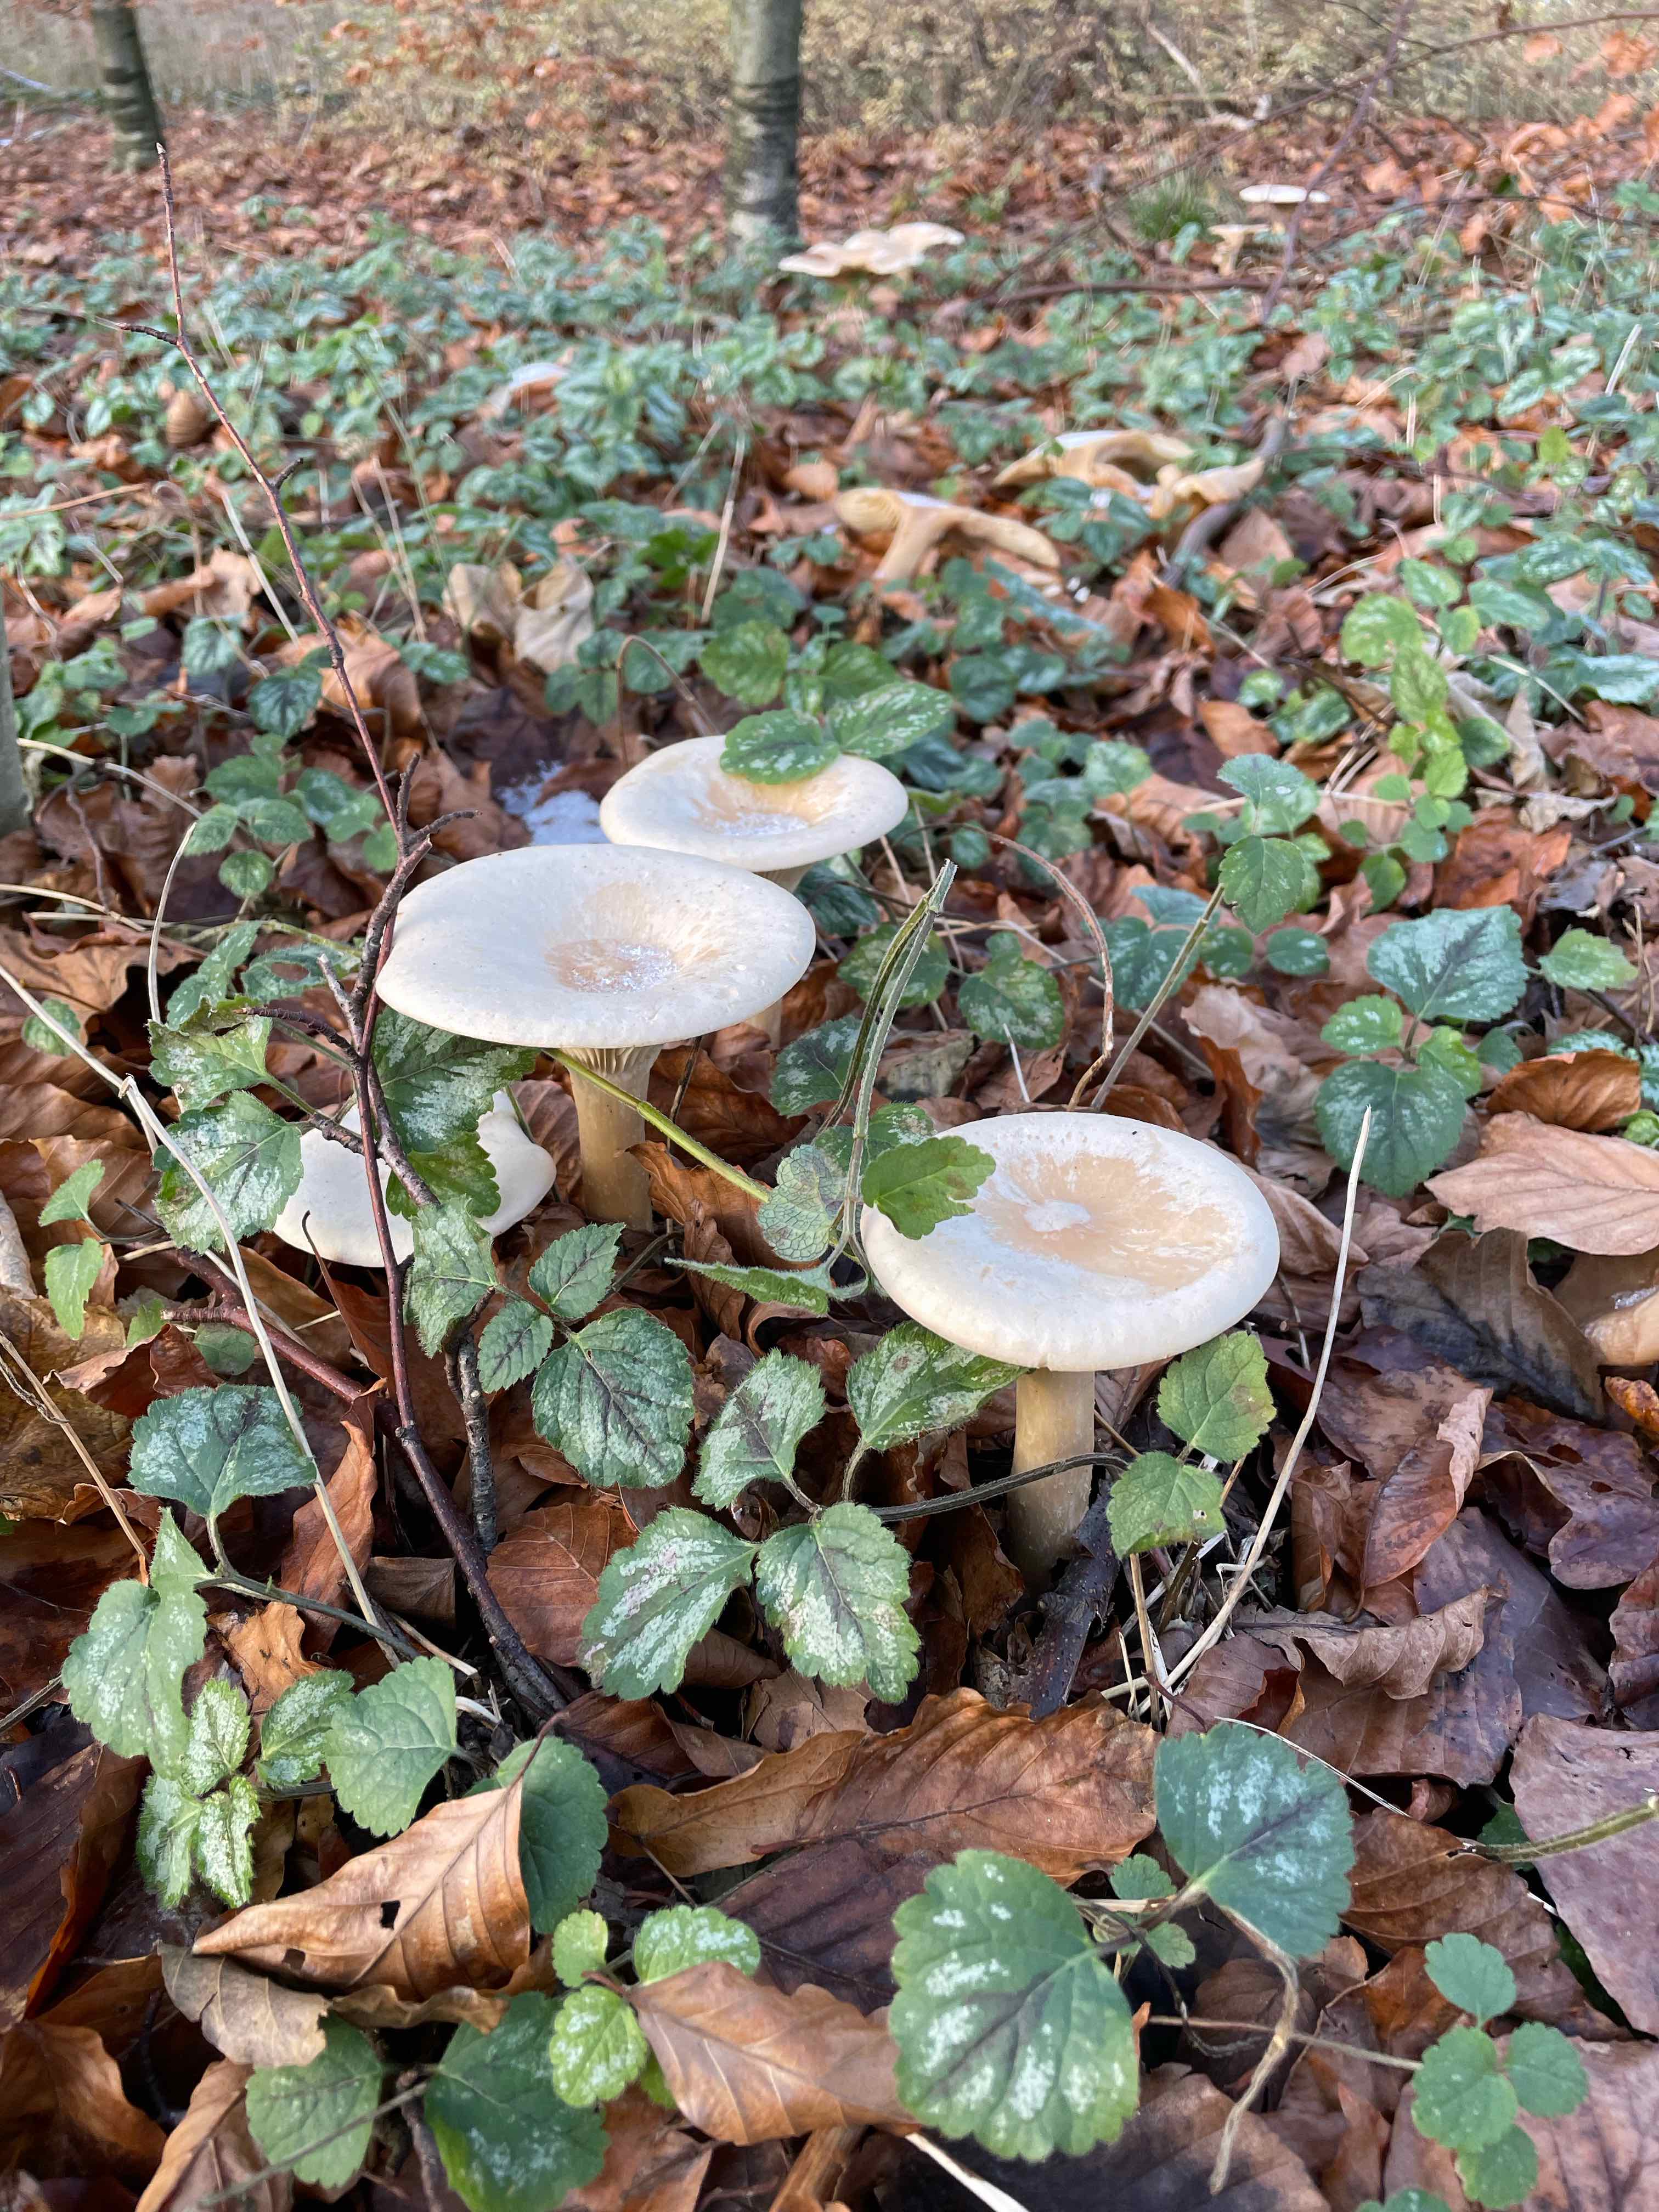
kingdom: Fungi
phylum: Basidiomycota
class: Agaricomycetes
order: Agaricales
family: Tricholomataceae
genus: Infundibulicybe
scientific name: Infundibulicybe geotropa
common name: stor tragthat
